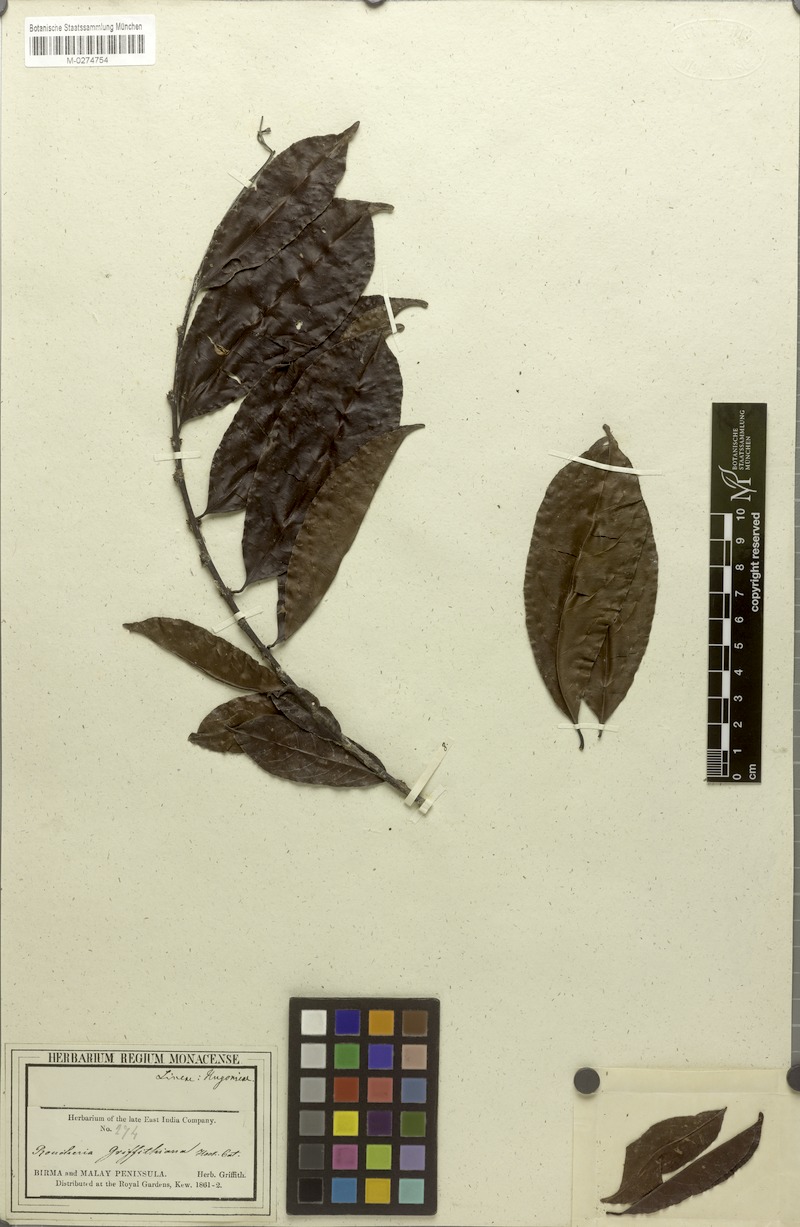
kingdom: Plantae
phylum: Tracheophyta
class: Magnoliopsida
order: Malpighiales
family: Linaceae
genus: Indorouchera
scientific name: Indorouchera griffithiana
